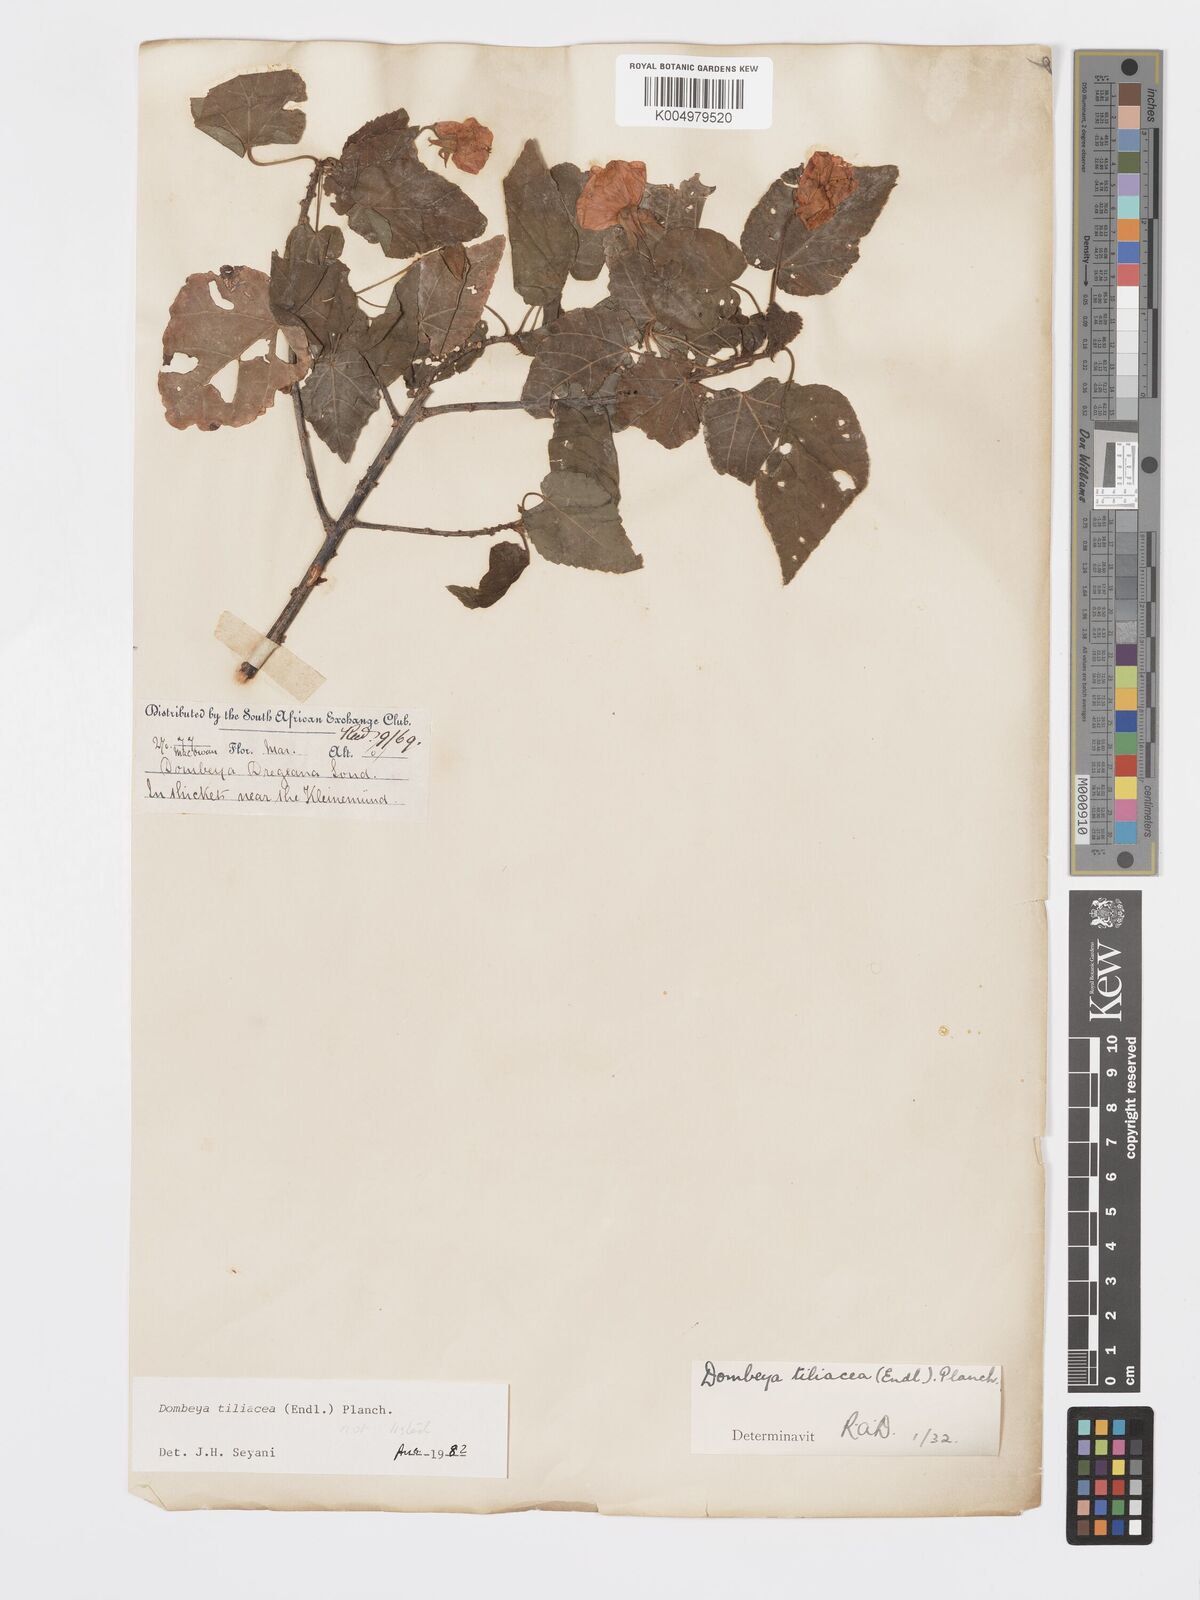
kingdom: Plantae
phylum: Tracheophyta
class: Magnoliopsida
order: Malvales
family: Malvaceae
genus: Dombeya
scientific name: Dombeya tiliacea
